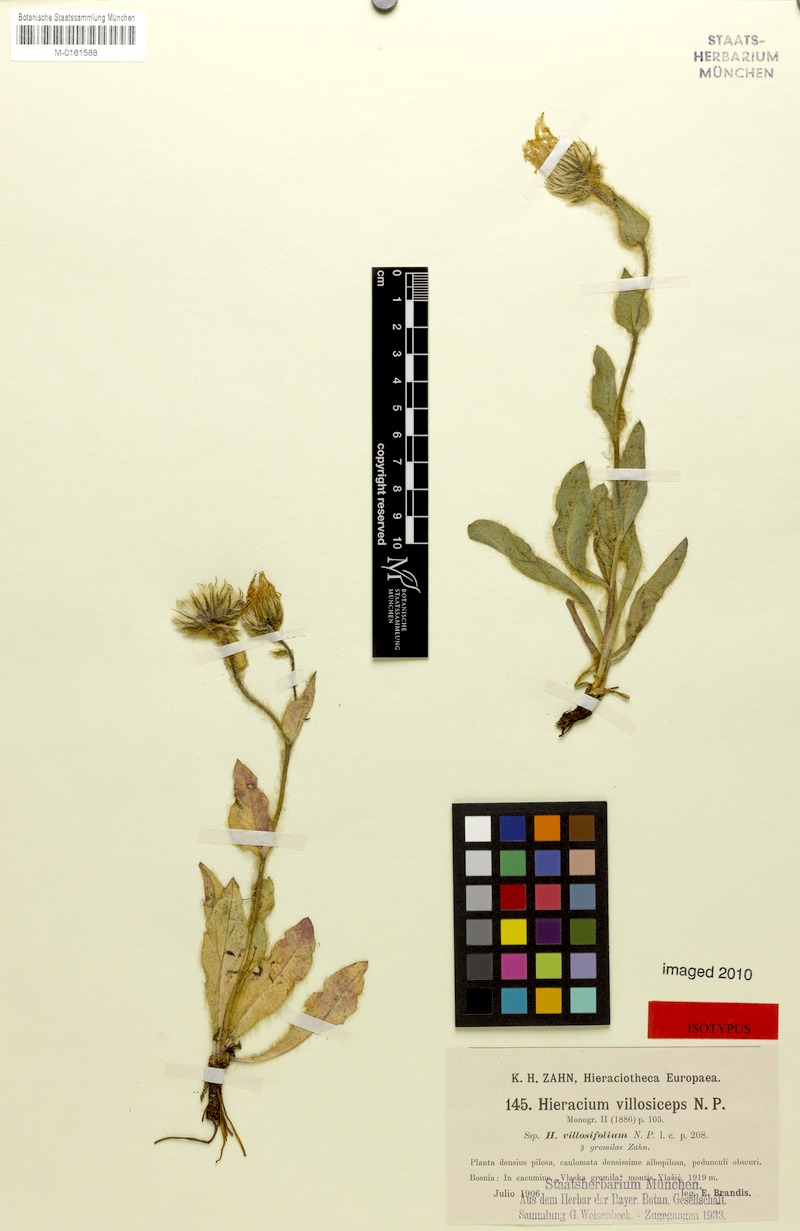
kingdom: Plantae
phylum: Tracheophyta
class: Magnoliopsida
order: Asterales
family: Asteraceae
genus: Hieracium
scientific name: Hieracium pilosum
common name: Fimbriate-pitted hawkweed
